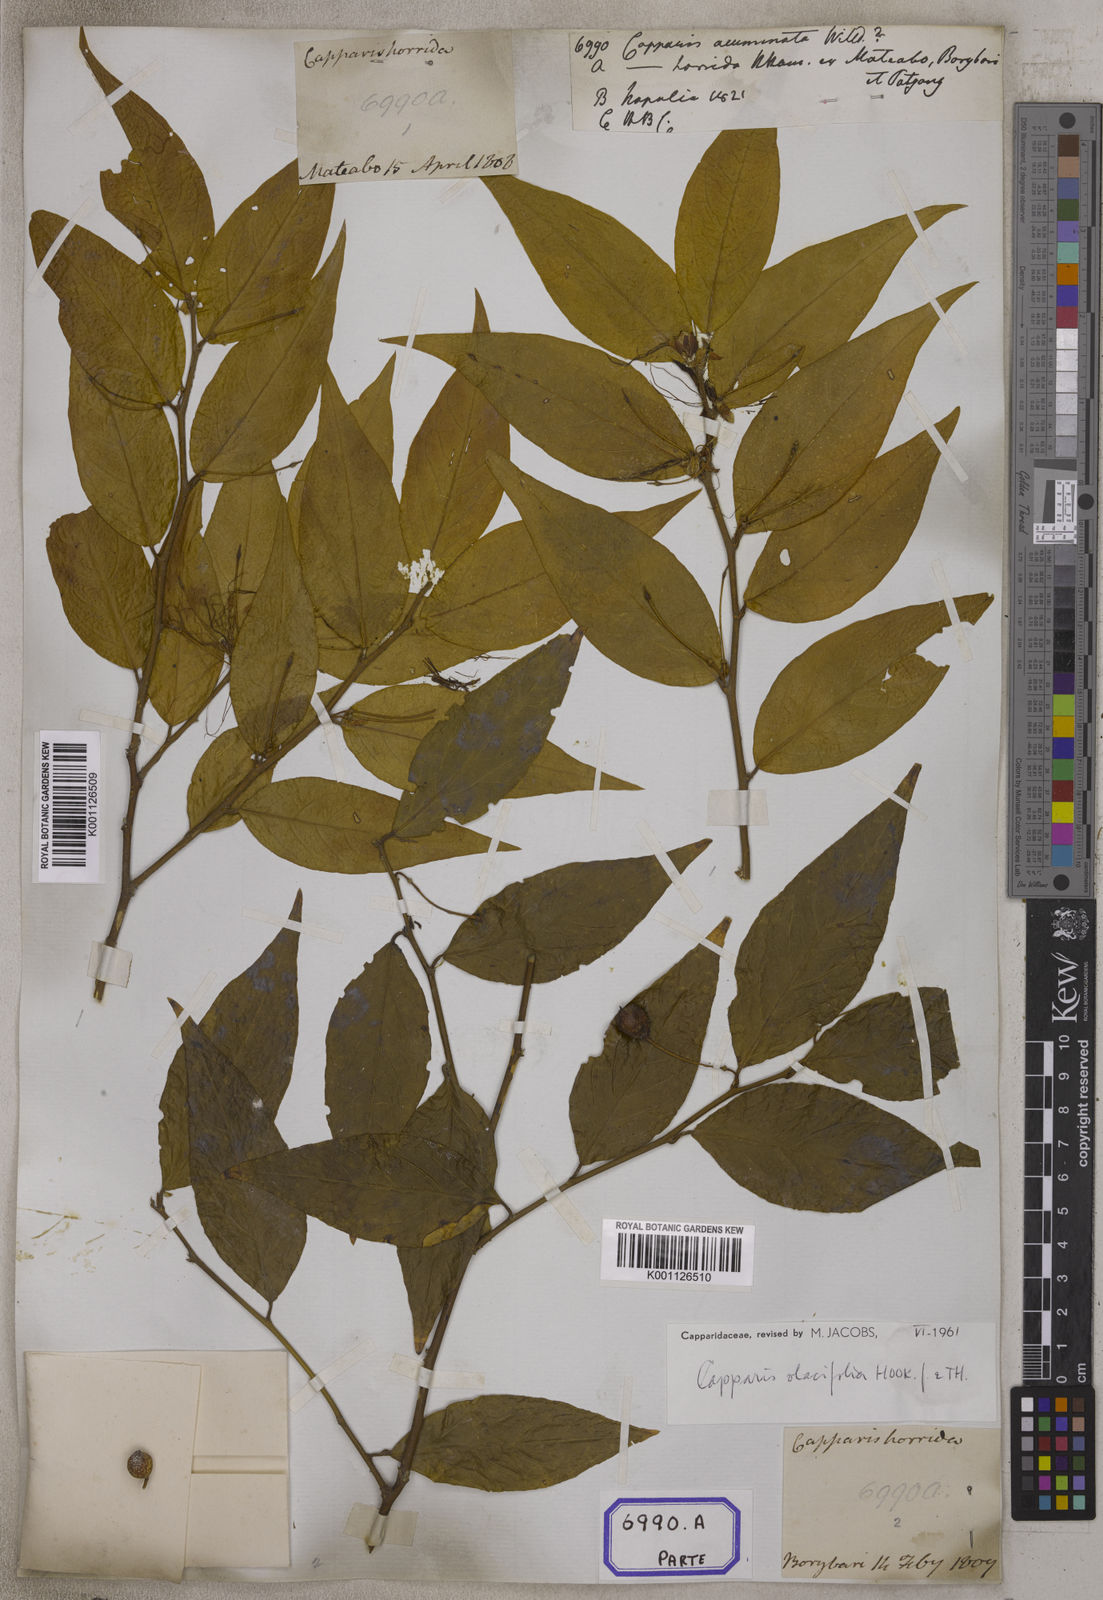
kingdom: Plantae
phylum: Tracheophyta
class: Magnoliopsida
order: Brassicales
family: Capparaceae
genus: Capparis
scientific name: Capparis
